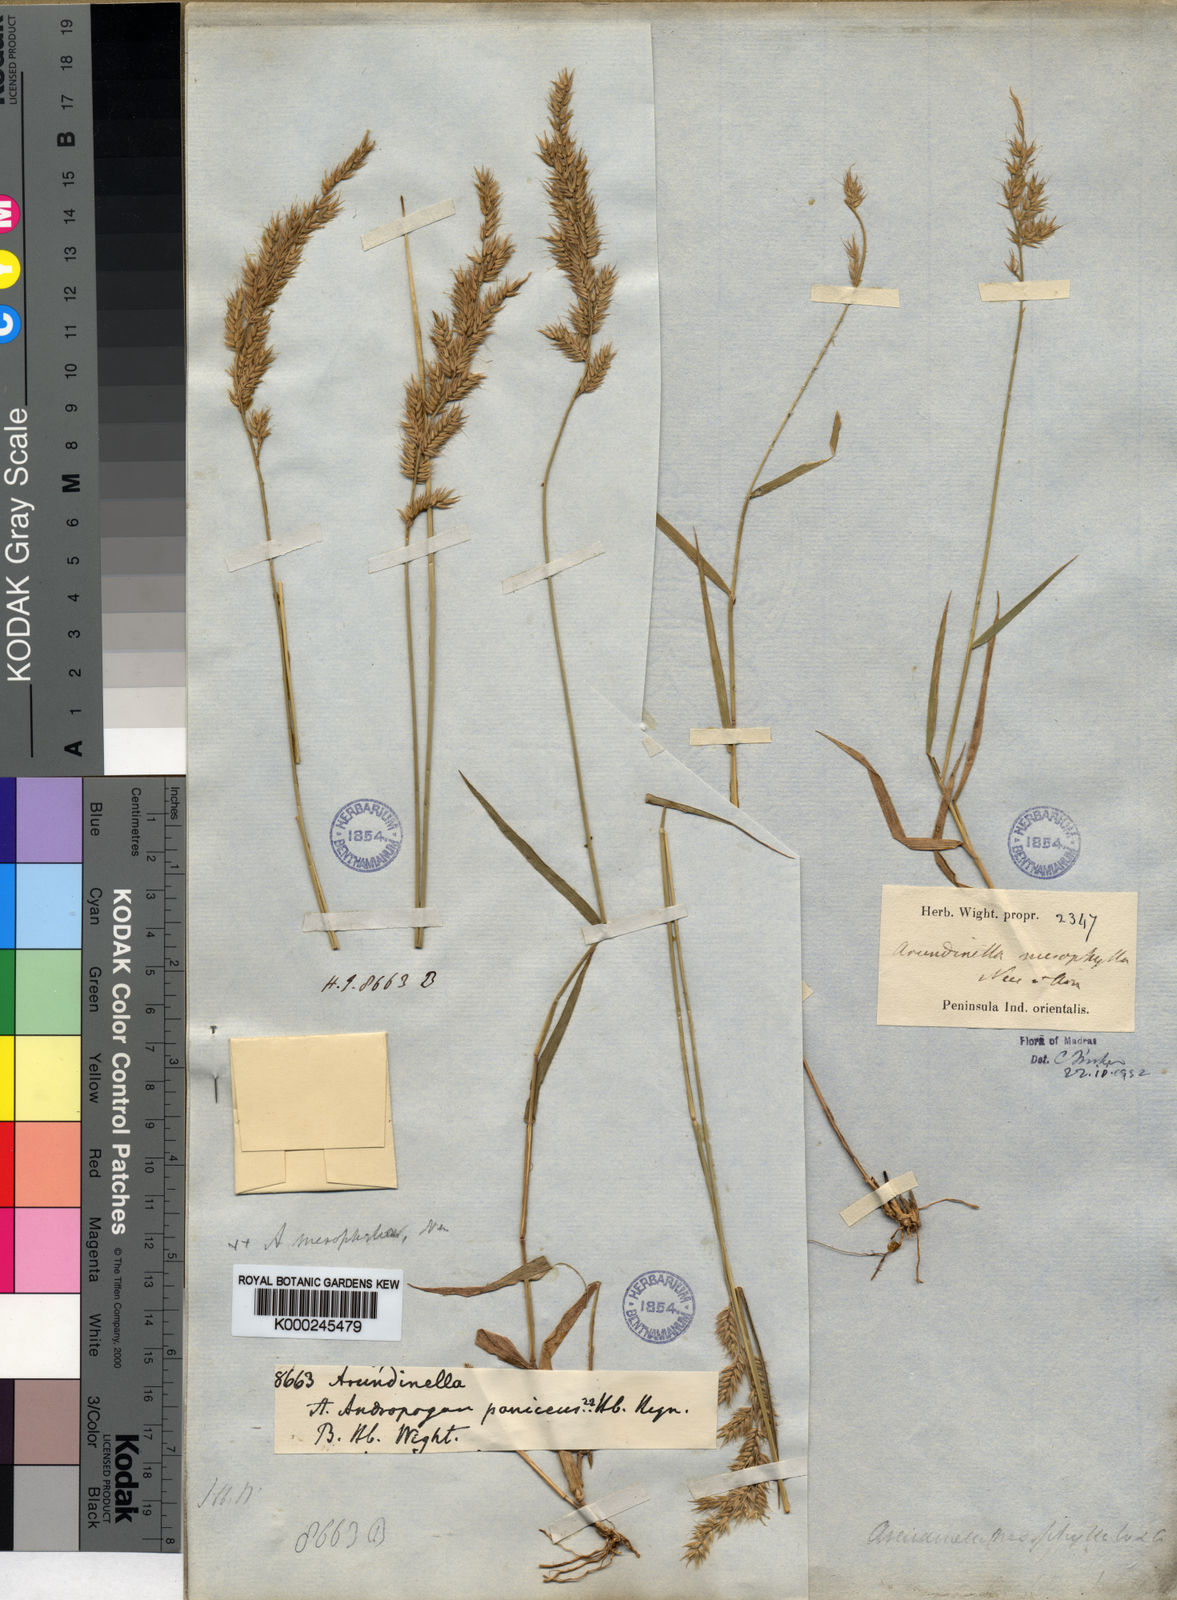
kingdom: Plantae
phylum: Tracheophyta
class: Liliopsida
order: Poales
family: Poaceae
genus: Arundinella
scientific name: Arundinella mesophylla
